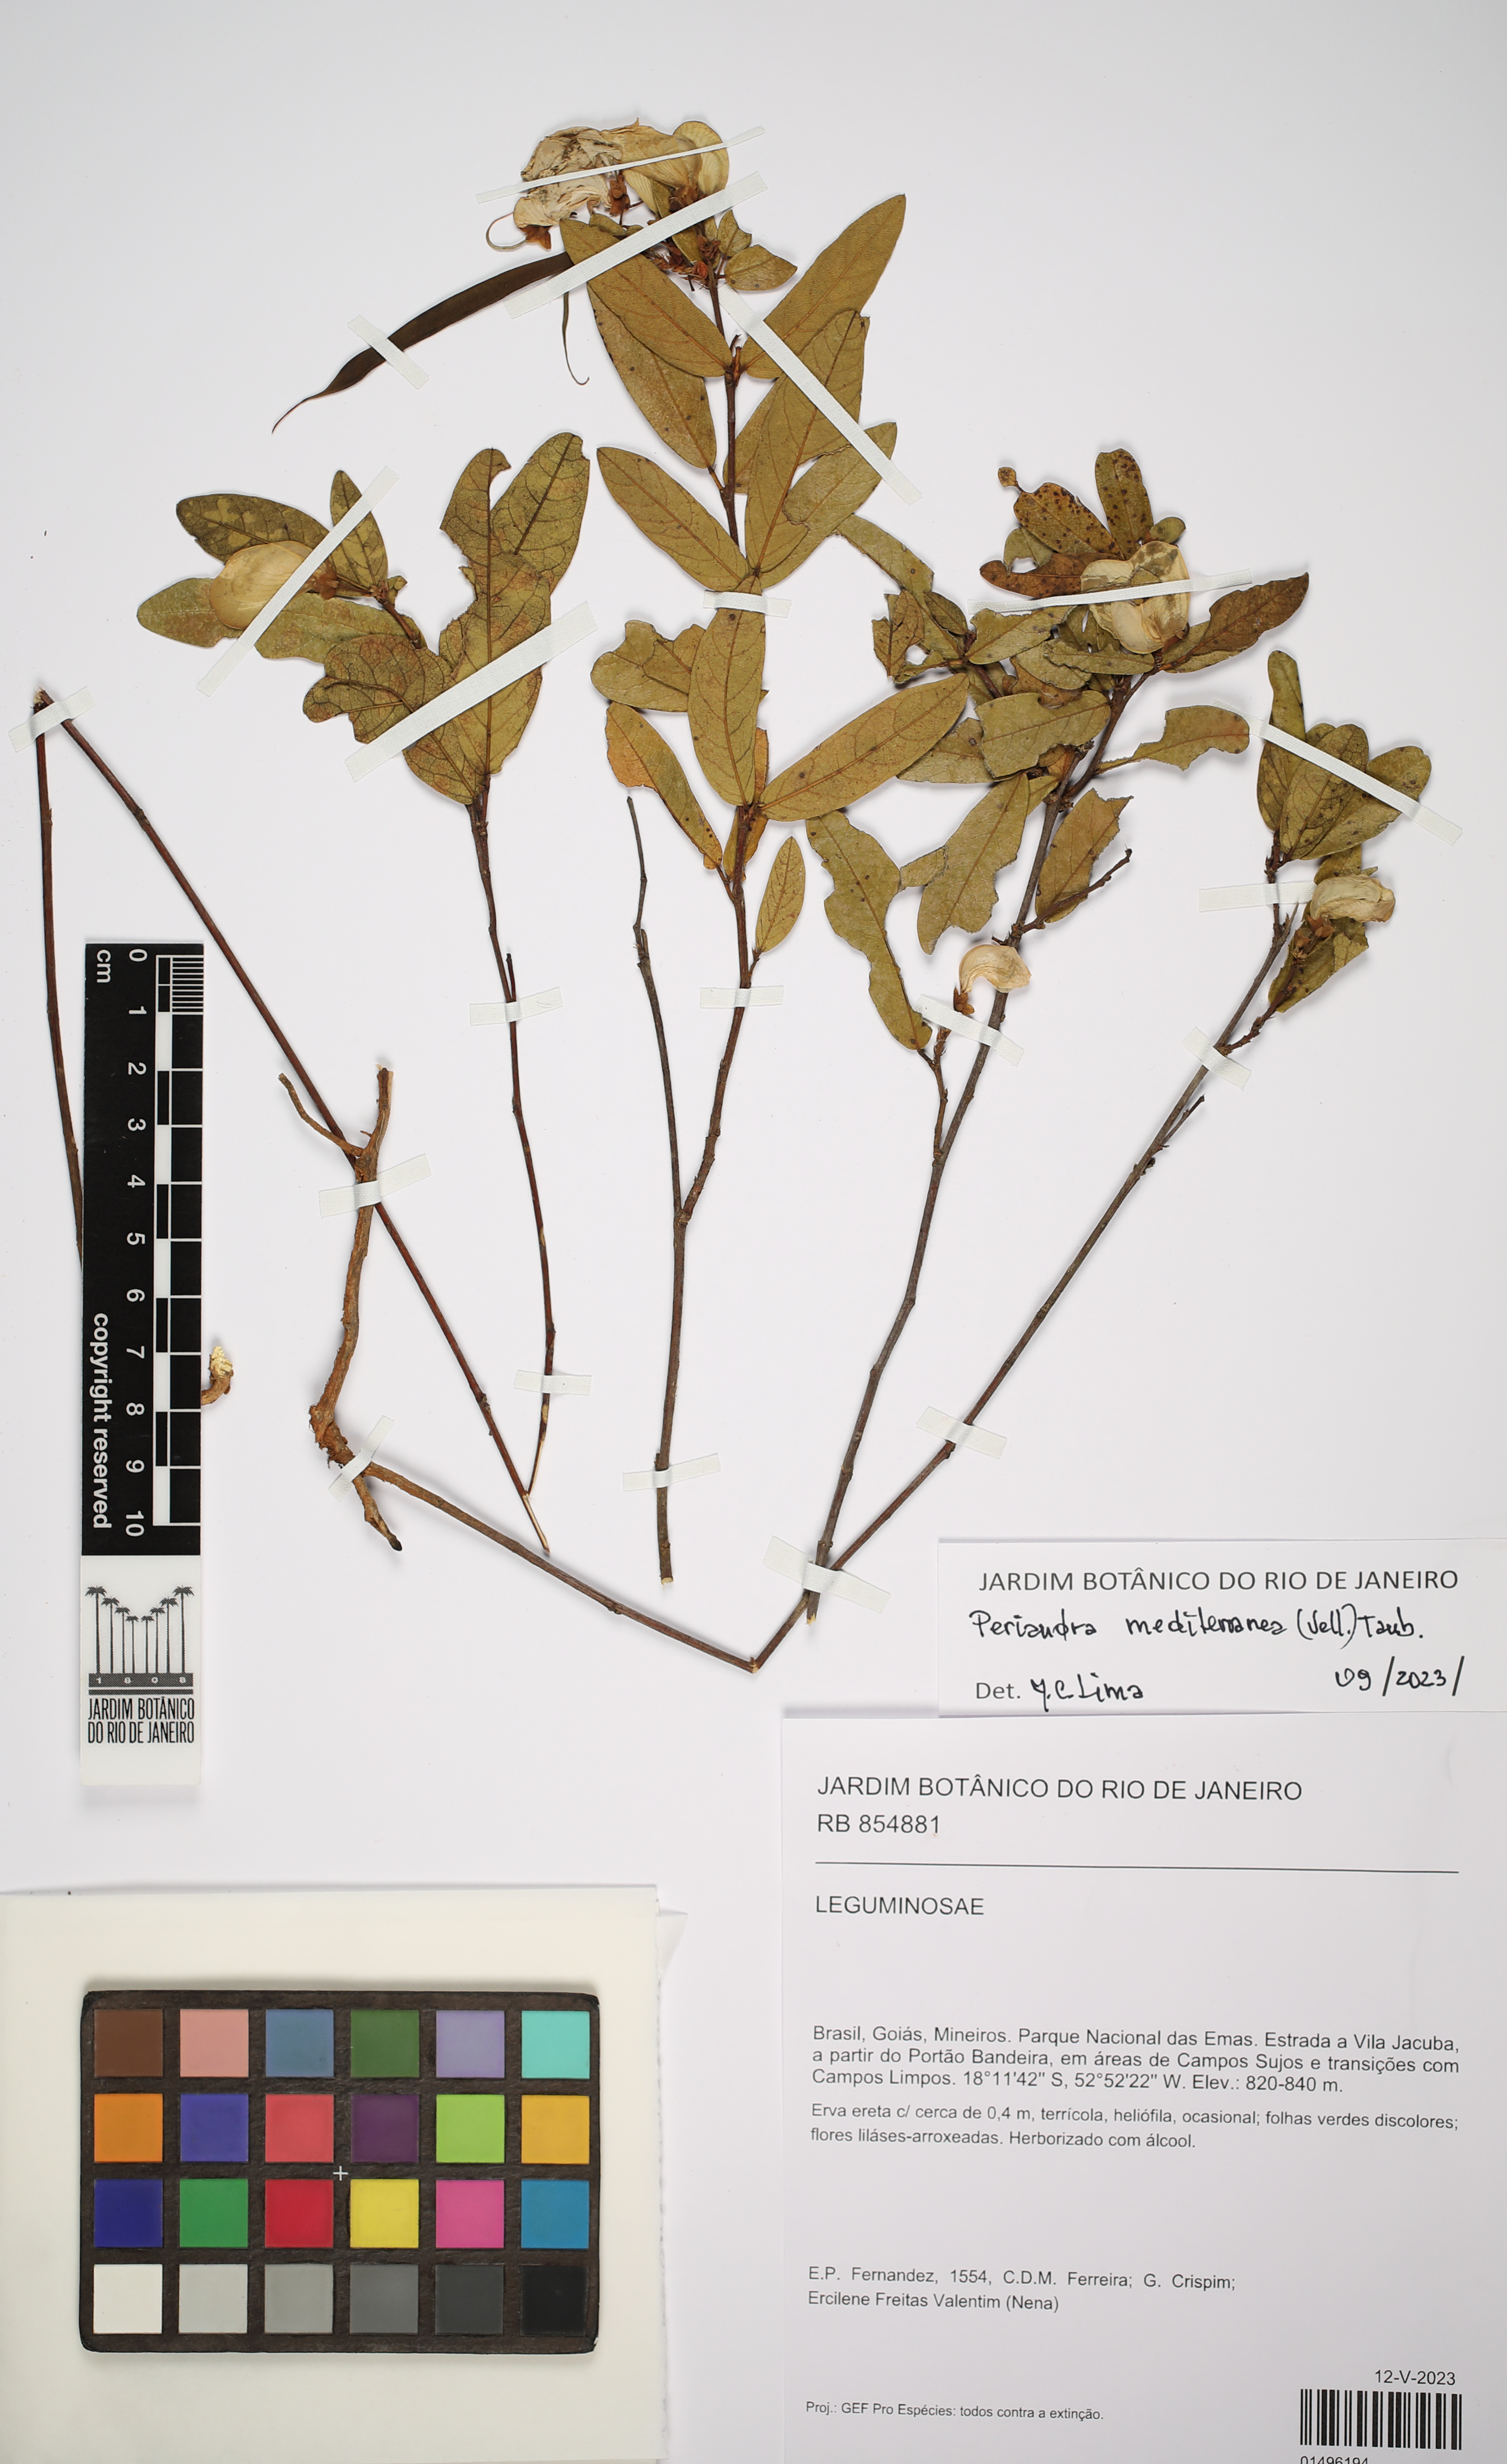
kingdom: Plantae
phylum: Tracheophyta
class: Magnoliopsida
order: Fabales
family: Fabaceae
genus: Periandra
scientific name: Periandra mediterranea
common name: Brazilian licorice
